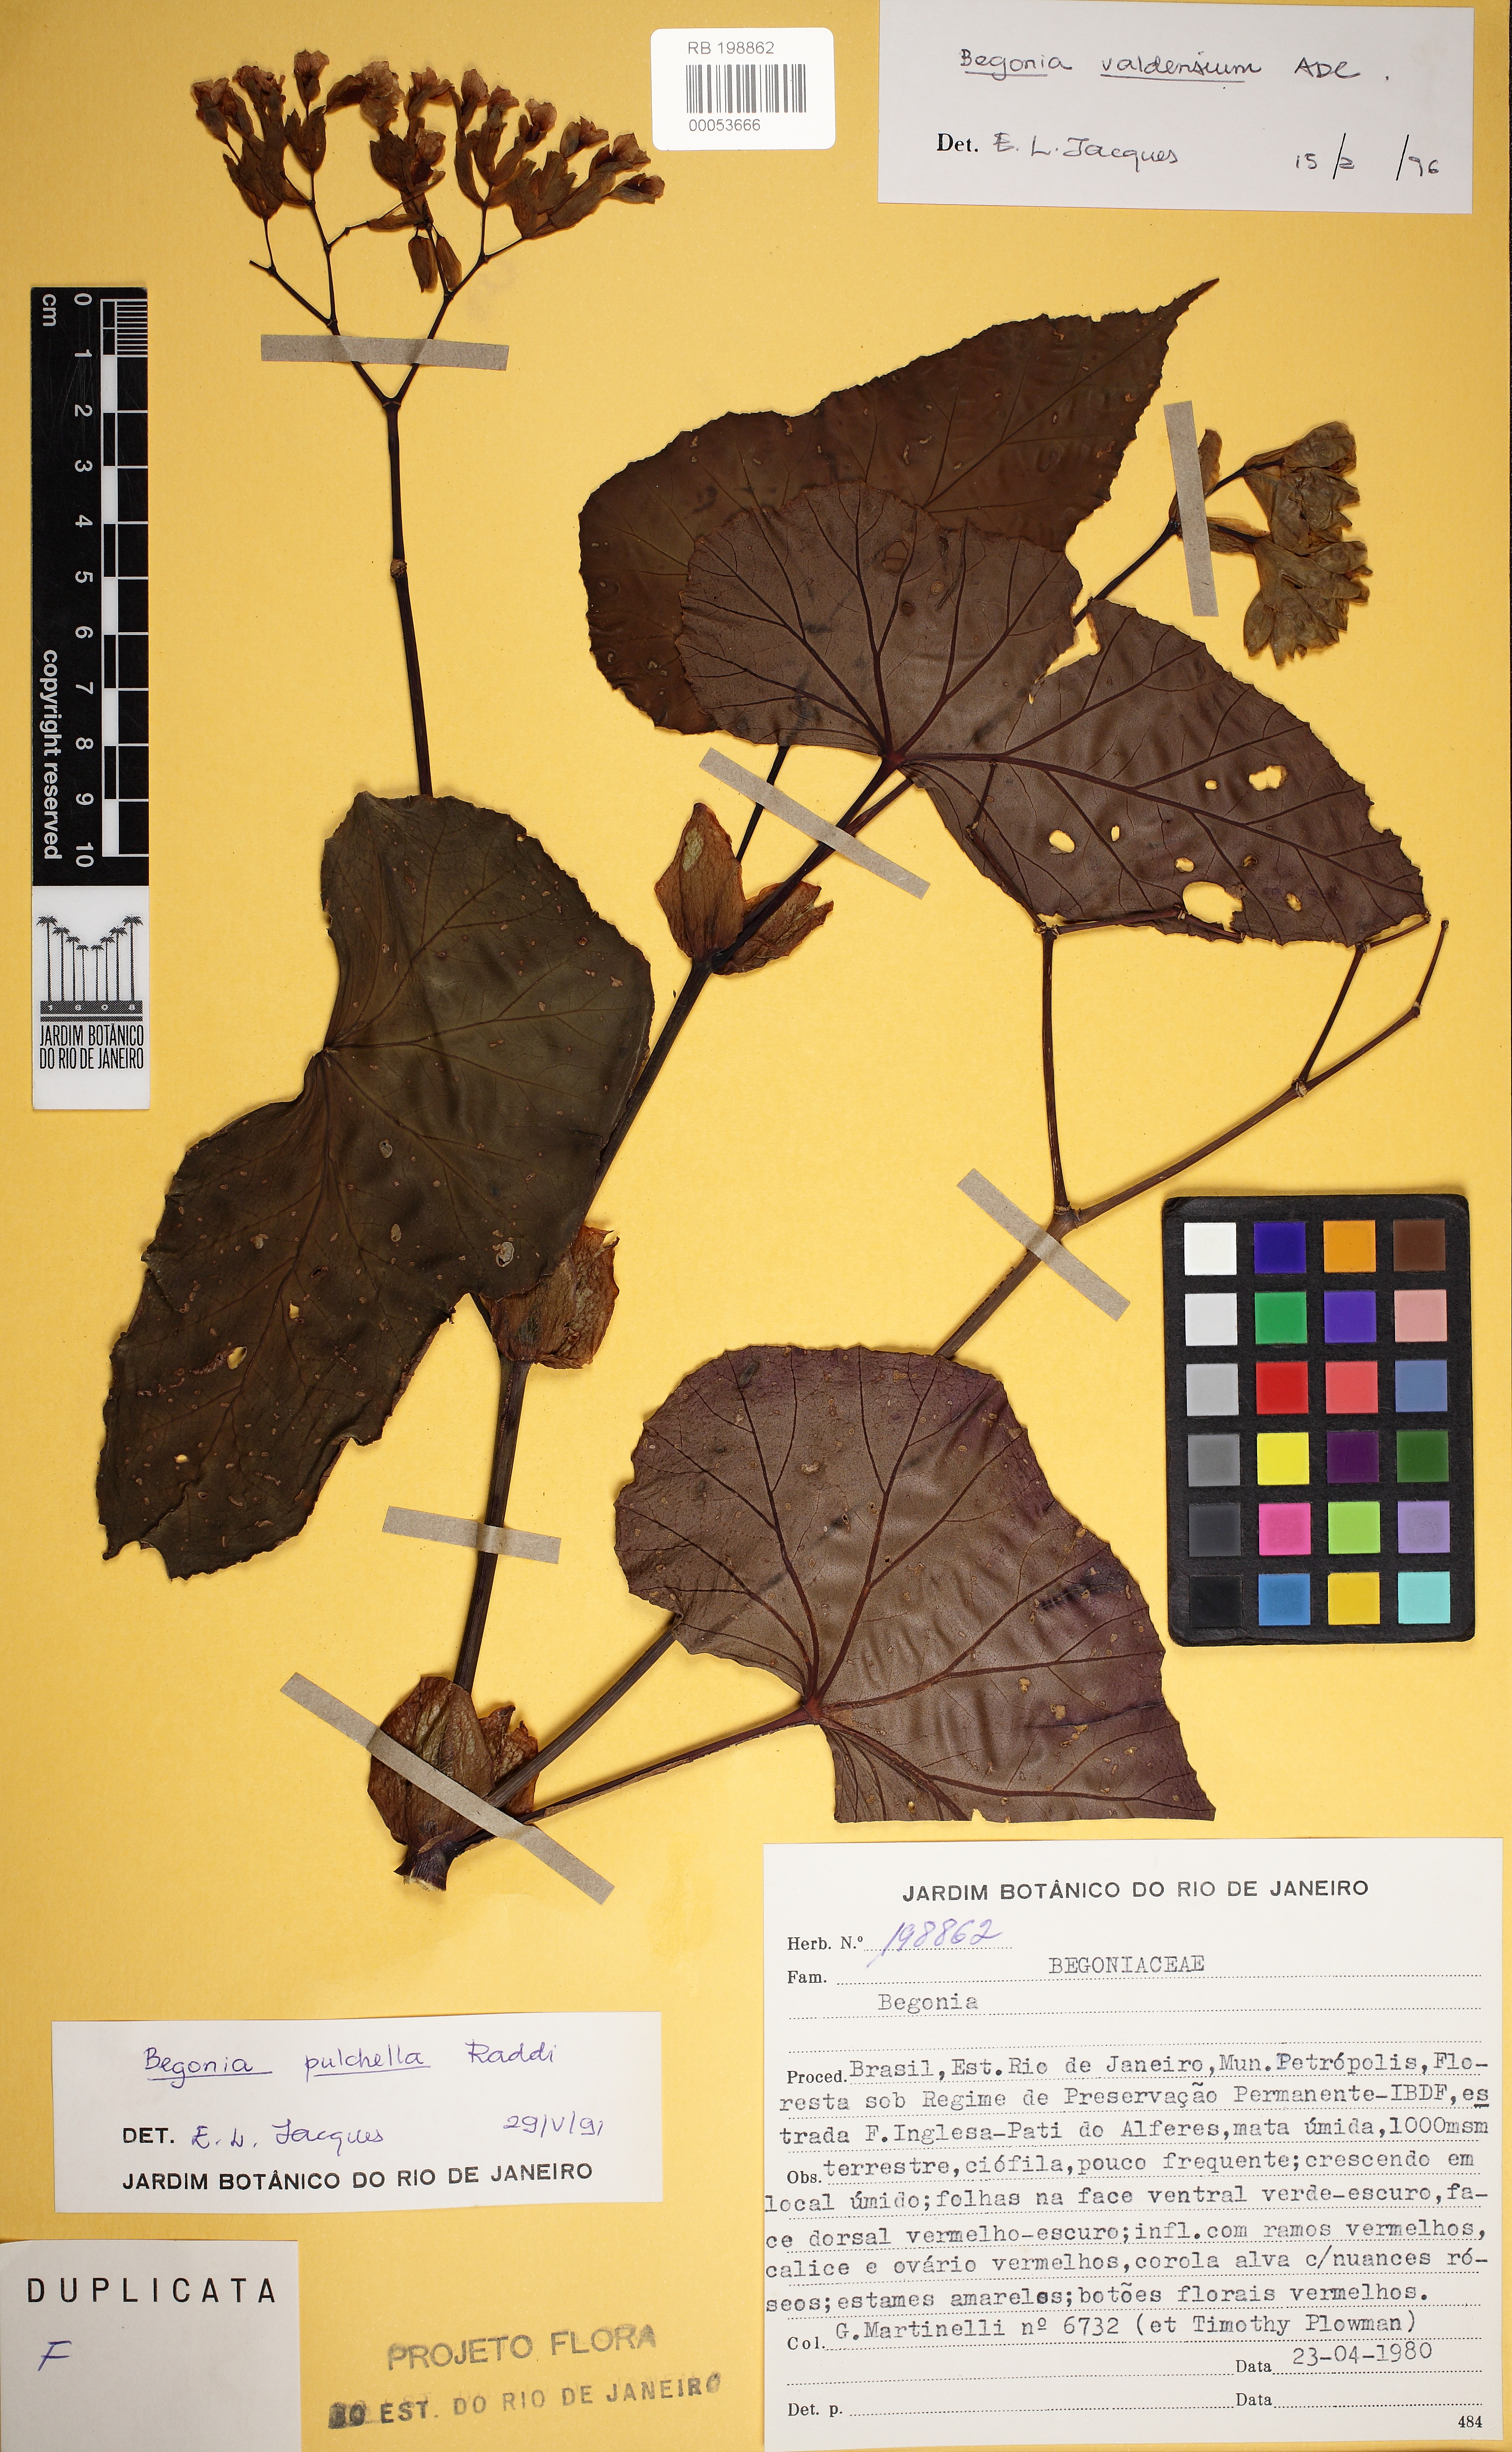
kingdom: Plantae
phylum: Tracheophyta
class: Magnoliopsida
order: Cucurbitales
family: Begoniaceae
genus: Begonia
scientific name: Begonia pulchella
